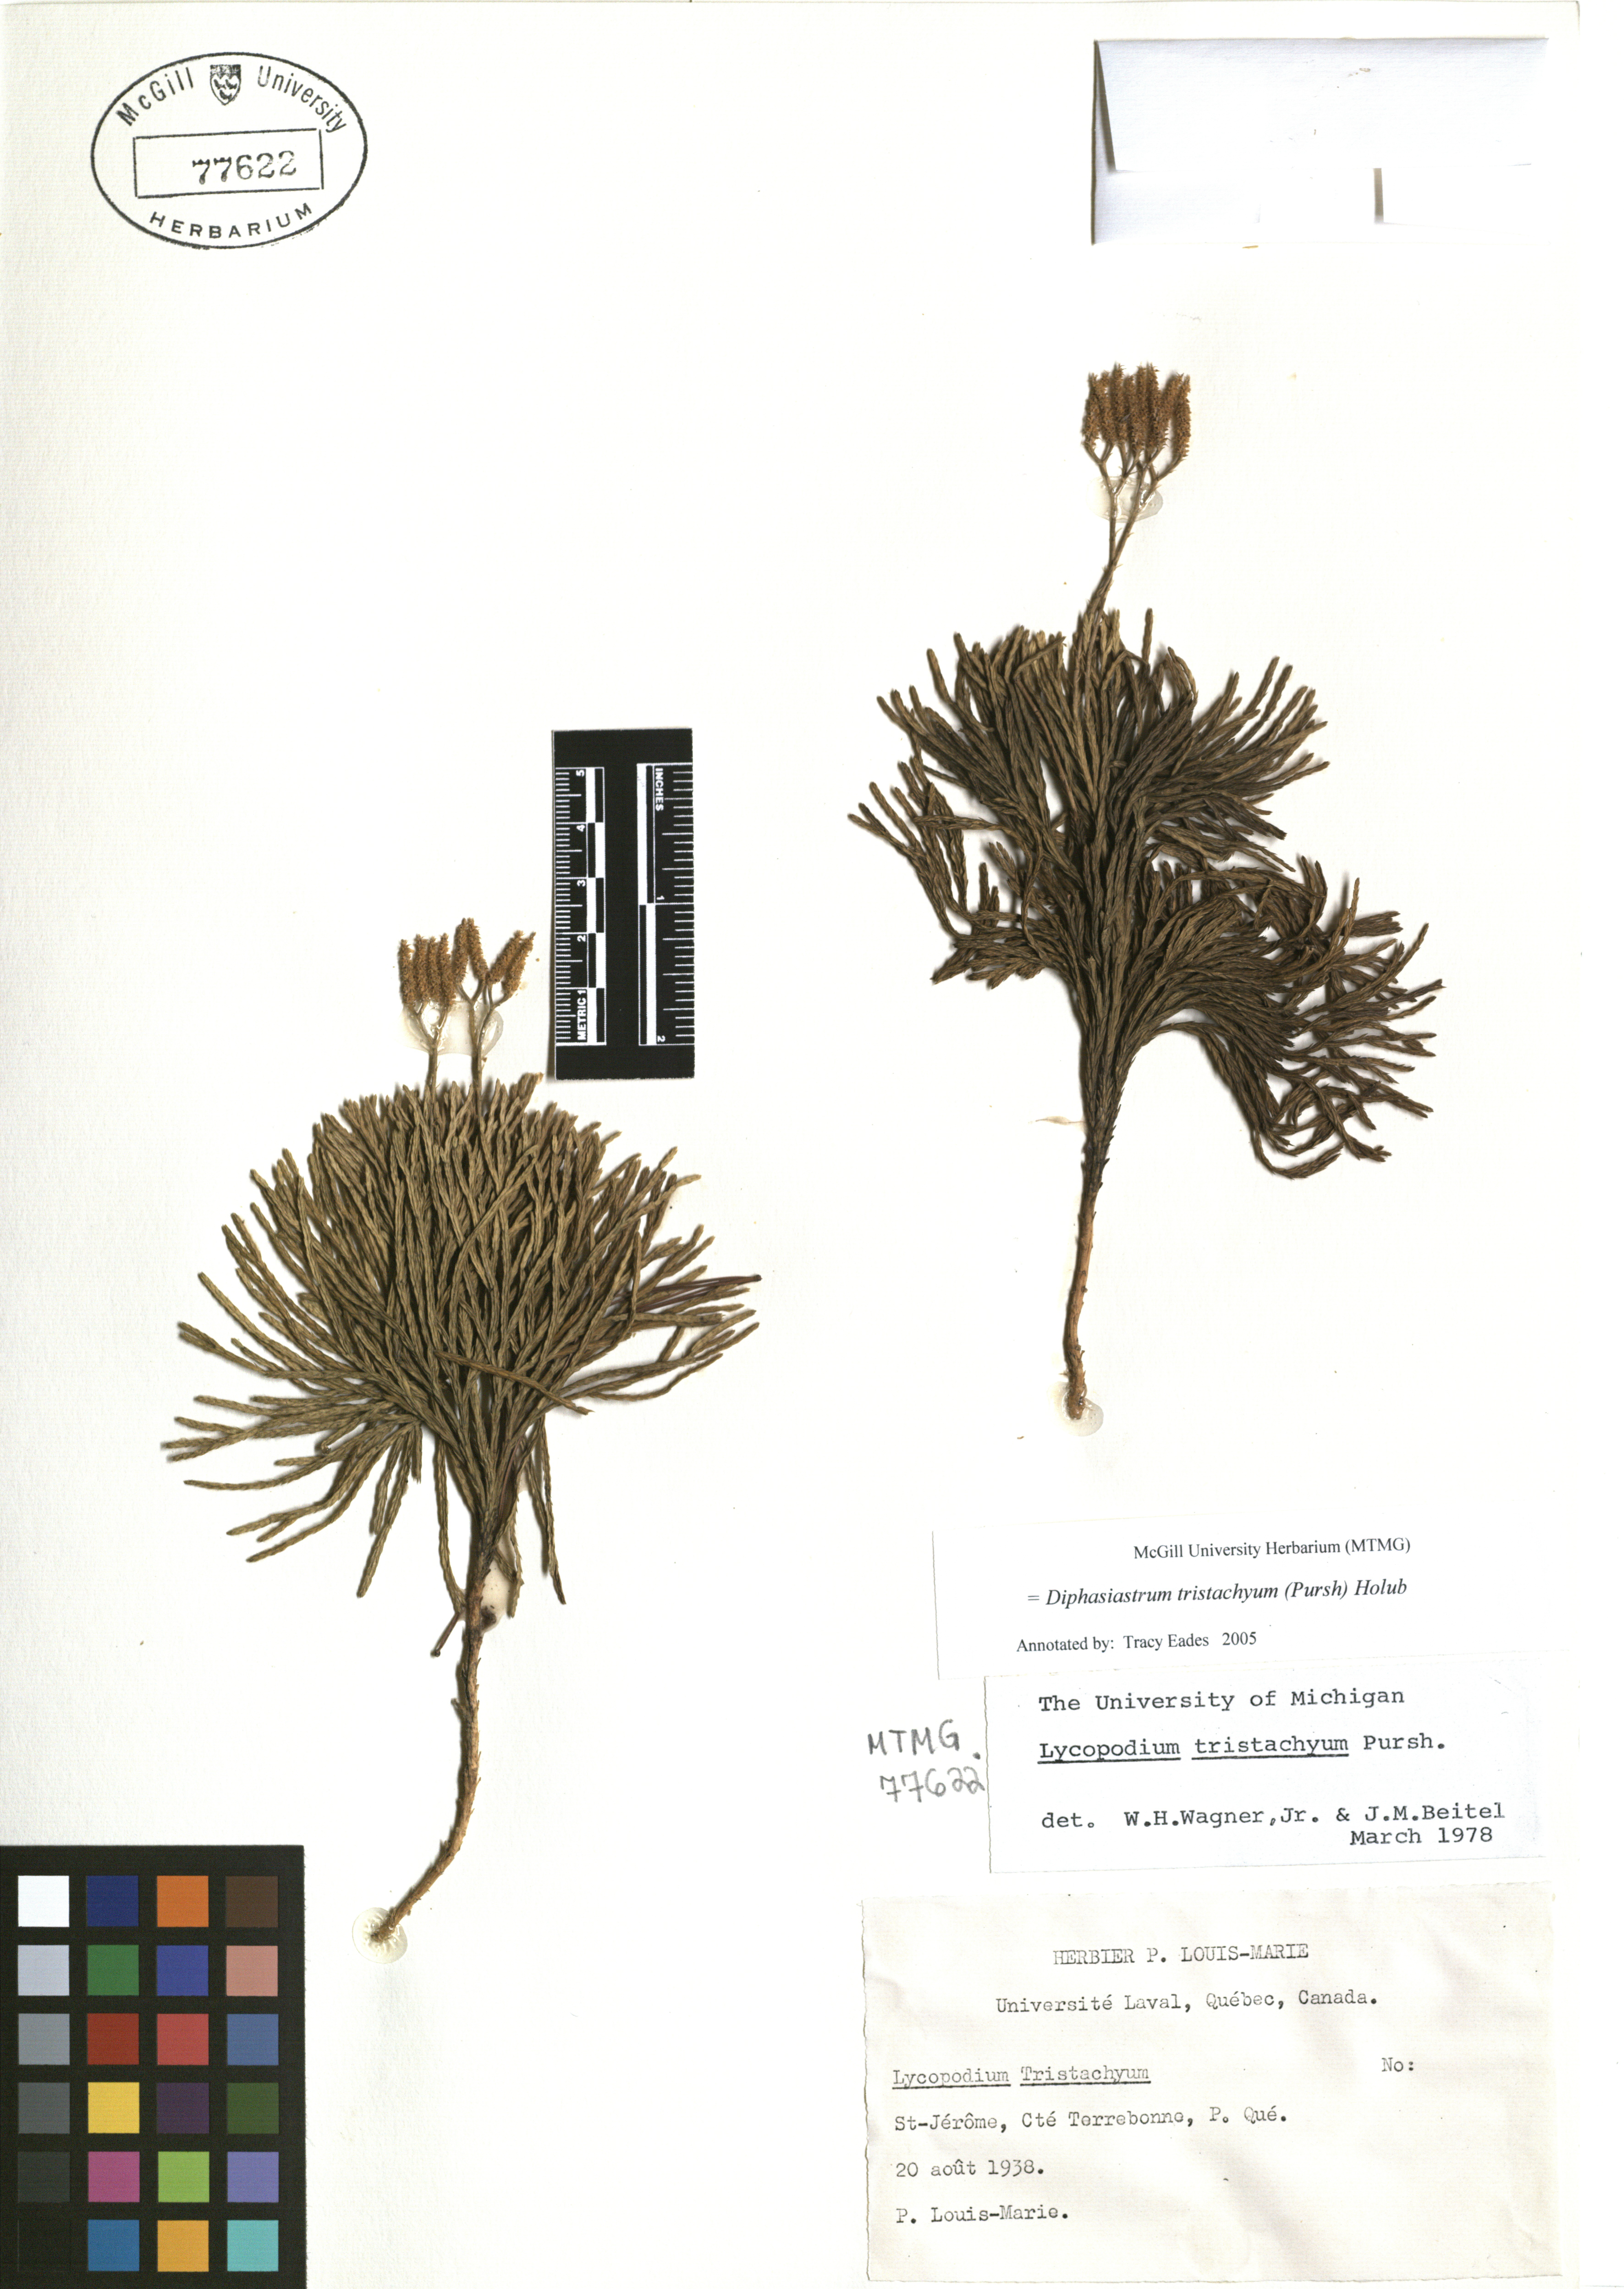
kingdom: Plantae
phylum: Tracheophyta
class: Lycopodiopsida
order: Lycopodiales
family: Lycopodiaceae
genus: Diphasiastrum
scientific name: Diphasiastrum tristachyum
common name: Blue ground-cedar
